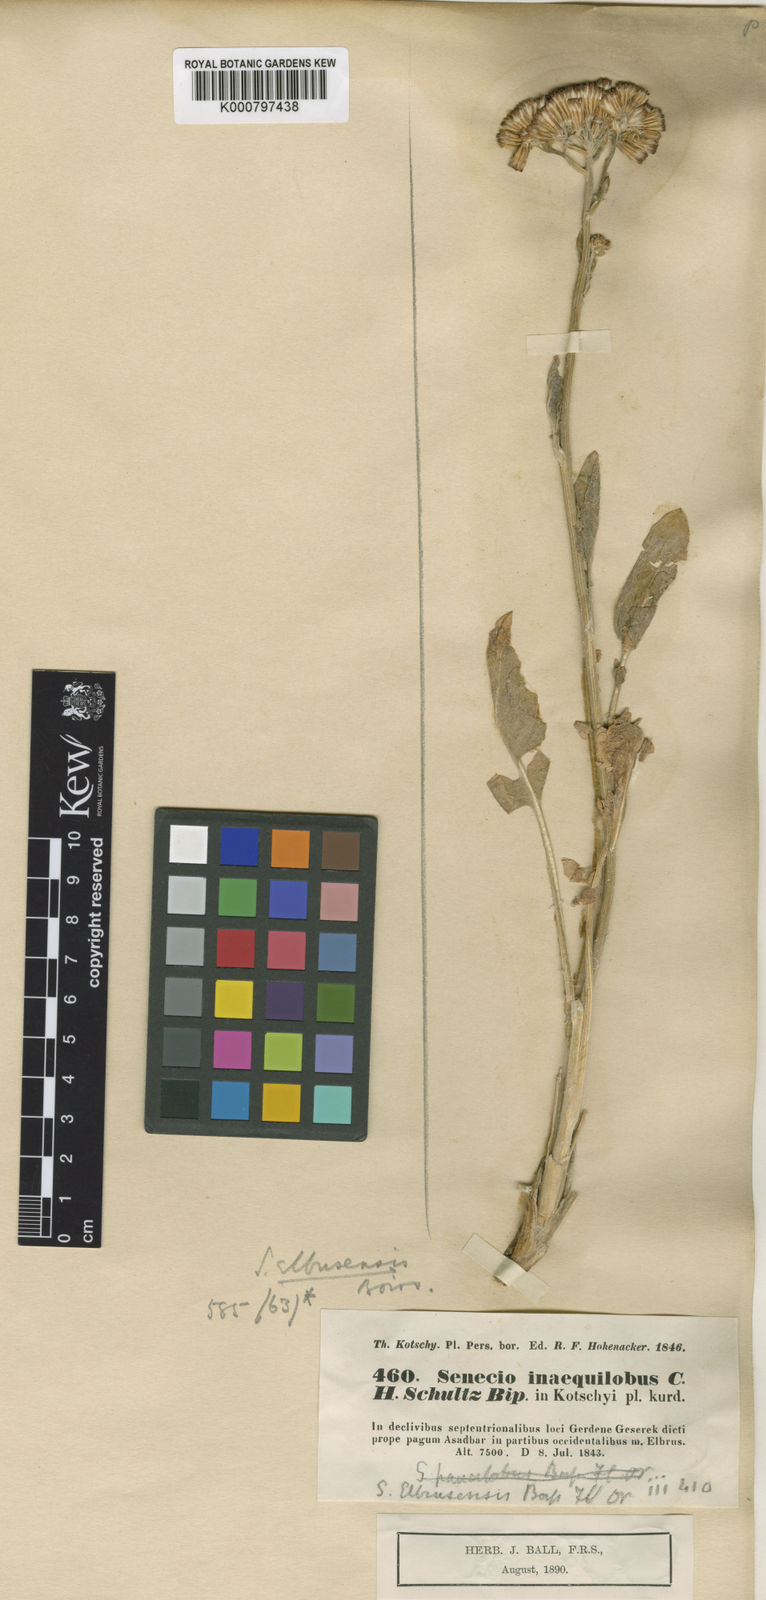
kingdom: Plantae
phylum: Tracheophyta
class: Magnoliopsida
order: Asterales
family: Asteraceae
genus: Iranecio
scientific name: Iranecio elbrusensis
